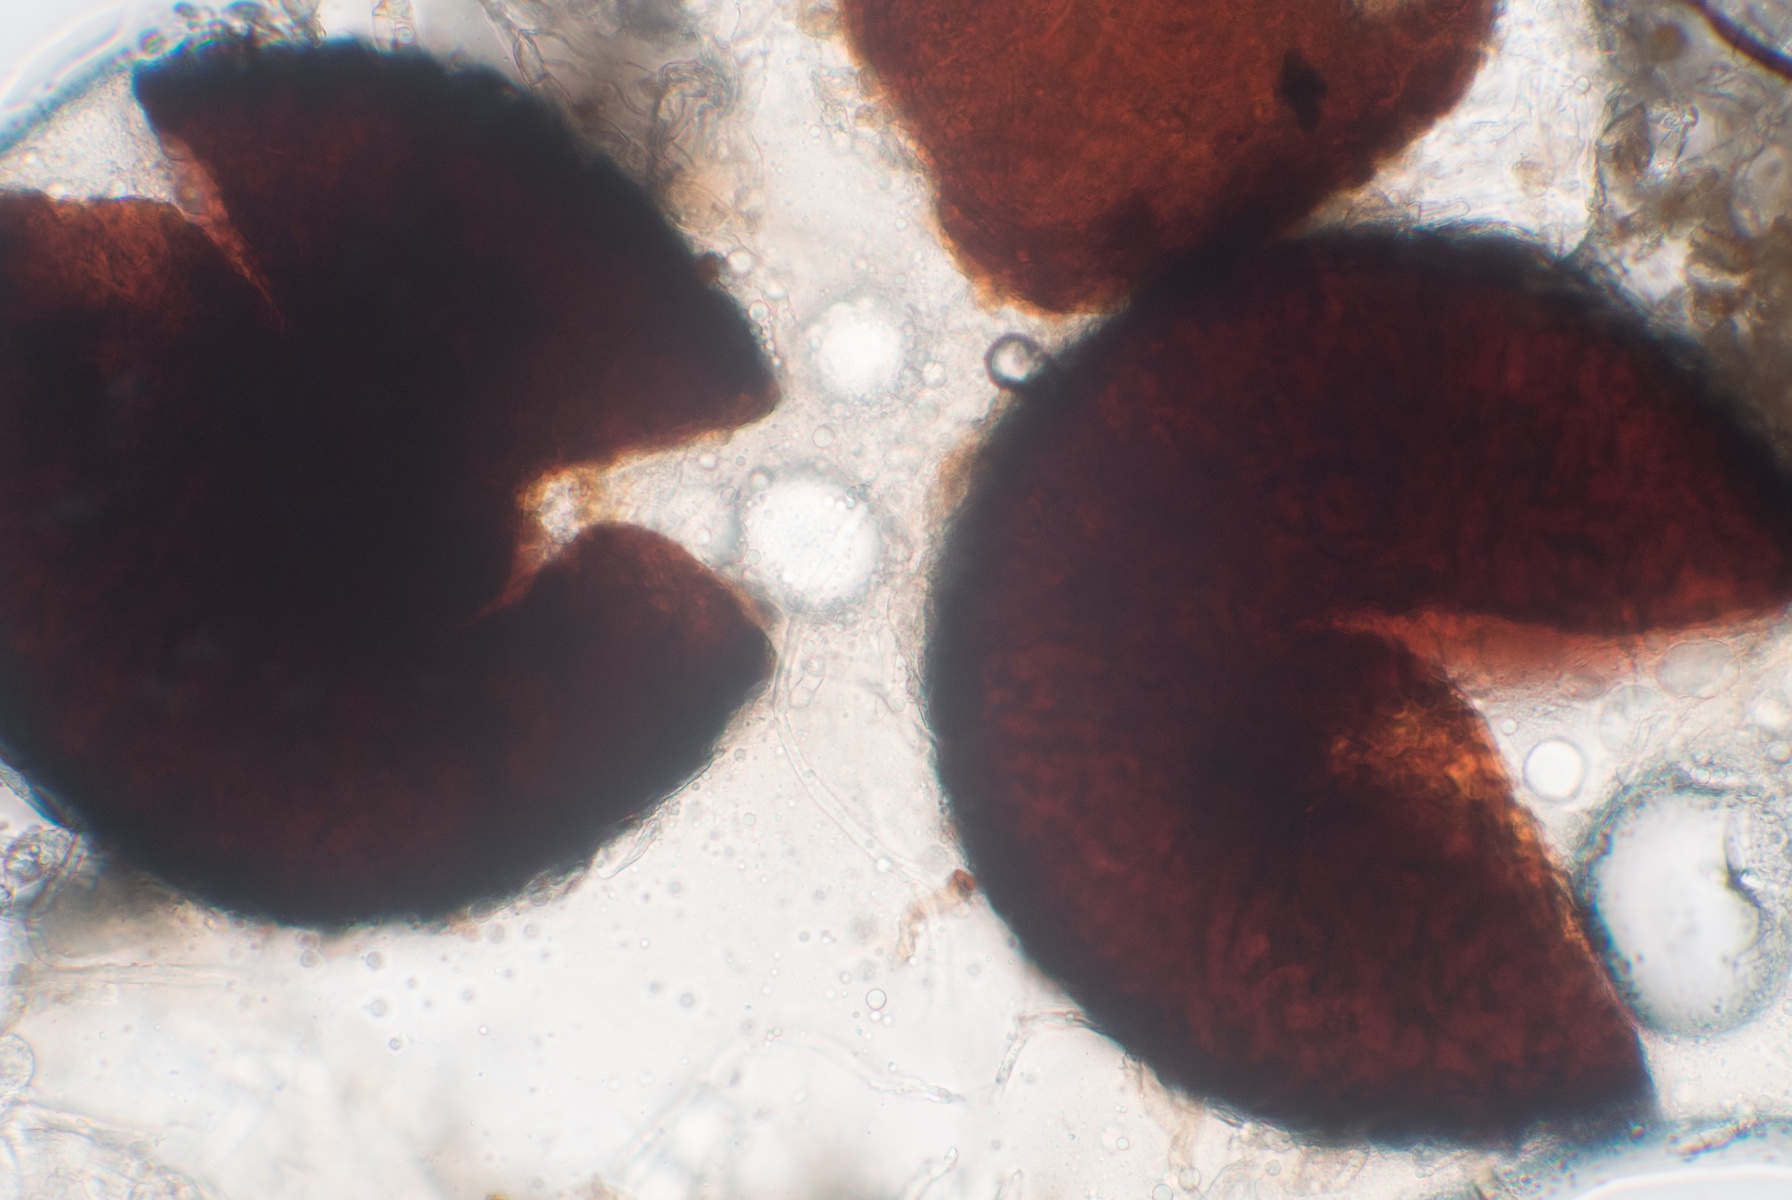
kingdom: Fungi
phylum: Ascomycota
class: Leotiomycetes
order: Helotiales
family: Erysiphaceae
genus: Blumeria
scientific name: Blumeria graminis
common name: græs-meldug
